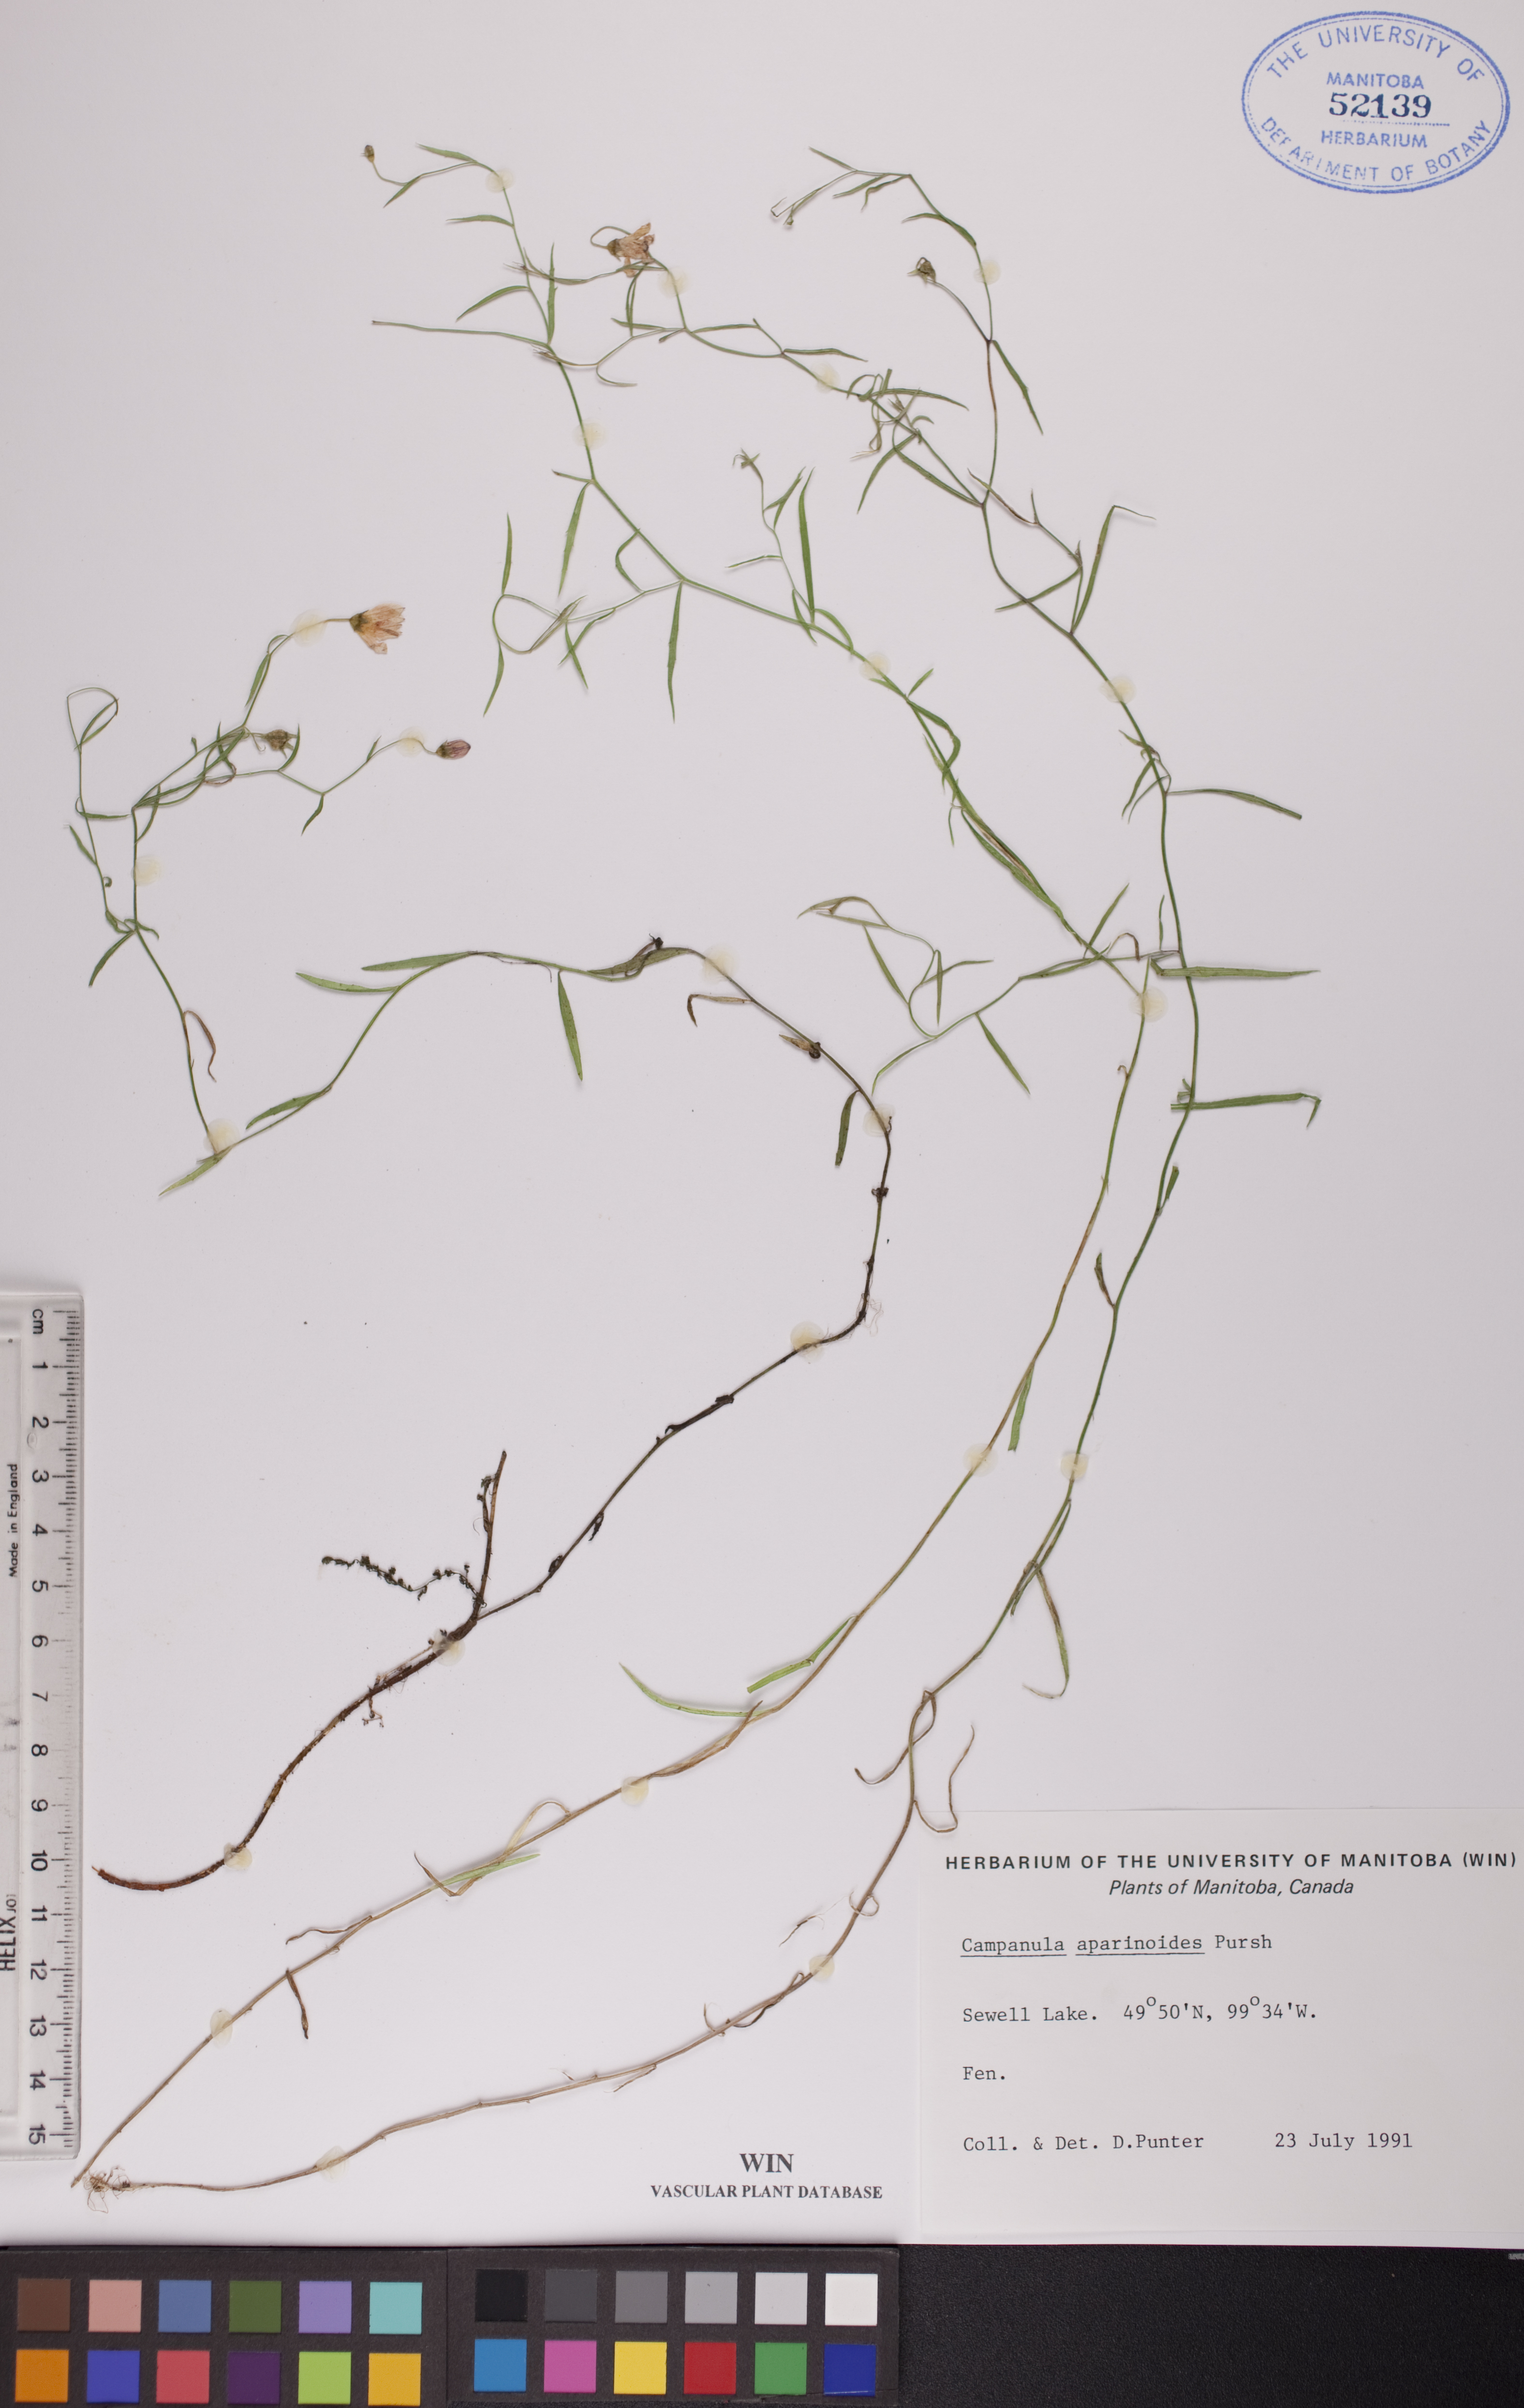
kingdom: Plantae
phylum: Tracheophyta
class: Magnoliopsida
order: Asterales
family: Campanulaceae
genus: Palustricodon
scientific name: Palustricodon aparinoides
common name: Bedstraw bellflower
